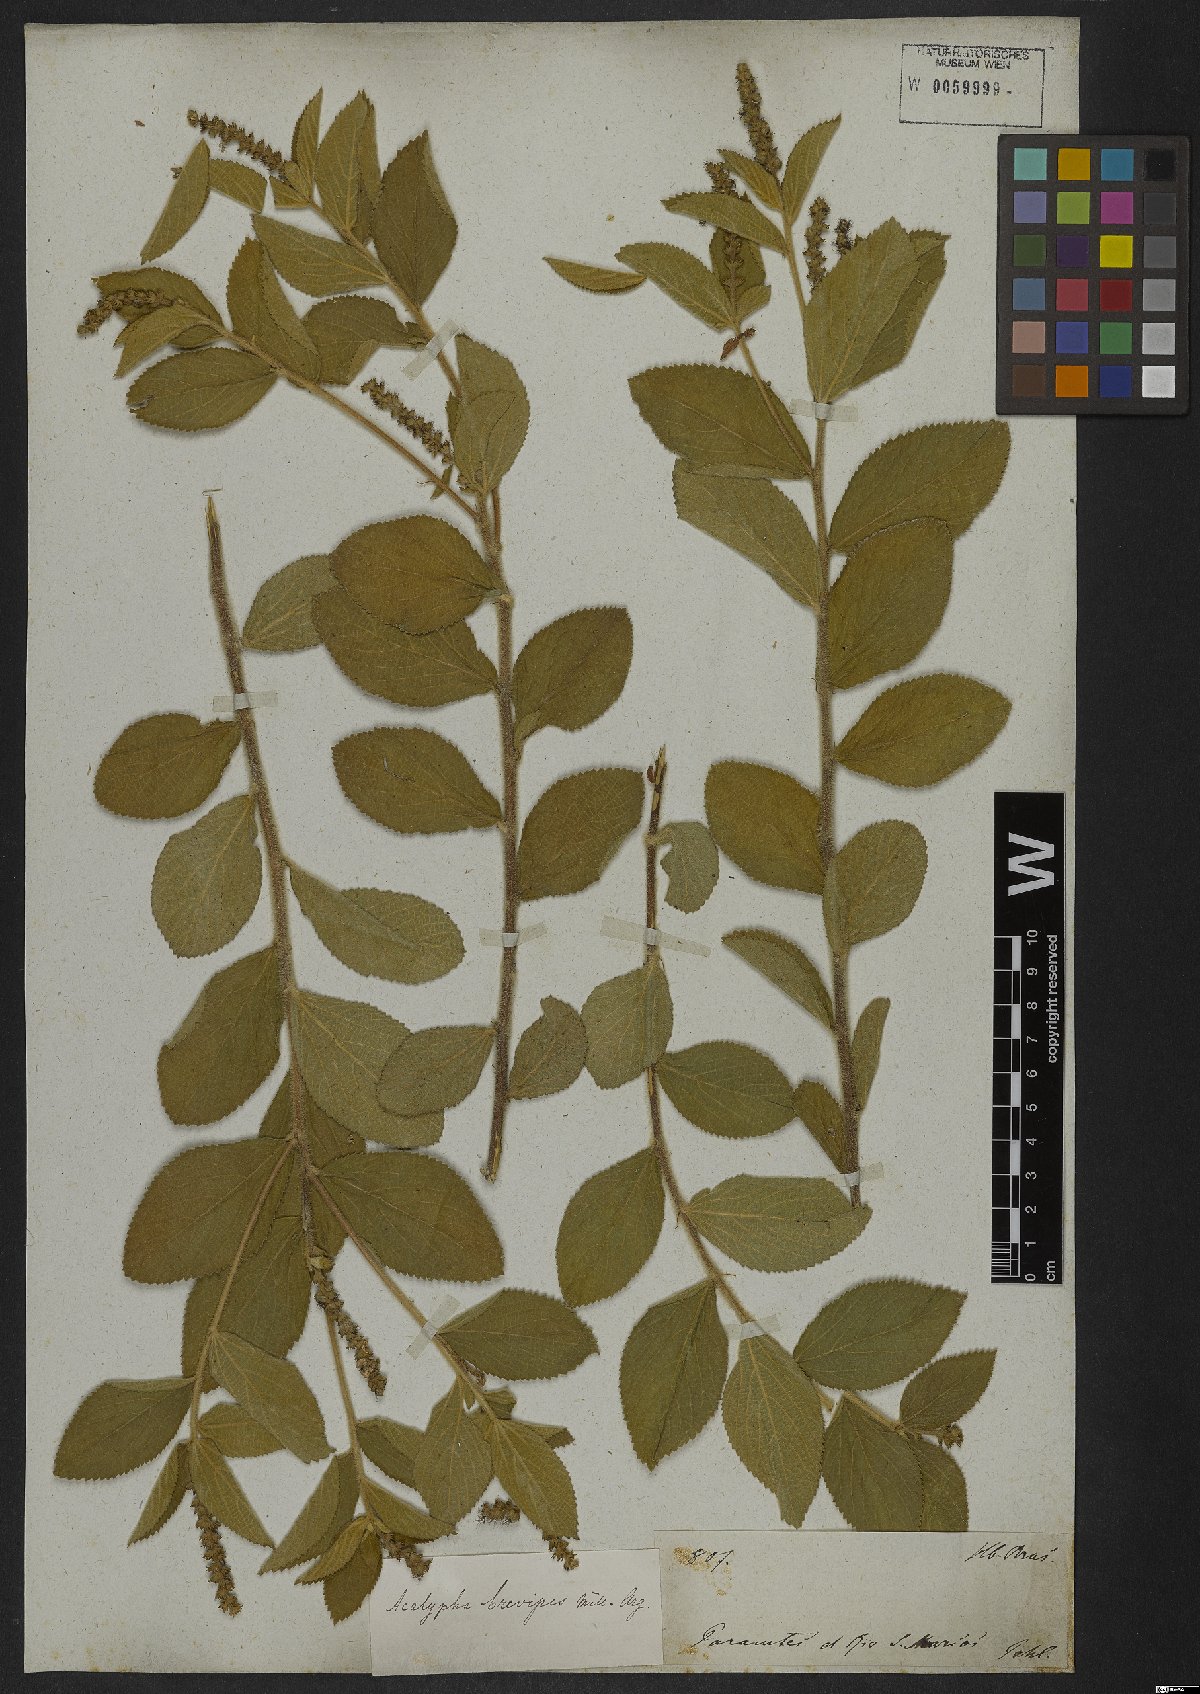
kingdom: Plantae
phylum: Tracheophyta
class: Magnoliopsida
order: Malpighiales
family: Euphorbiaceae
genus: Acalypha
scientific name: Acalypha vellamea
